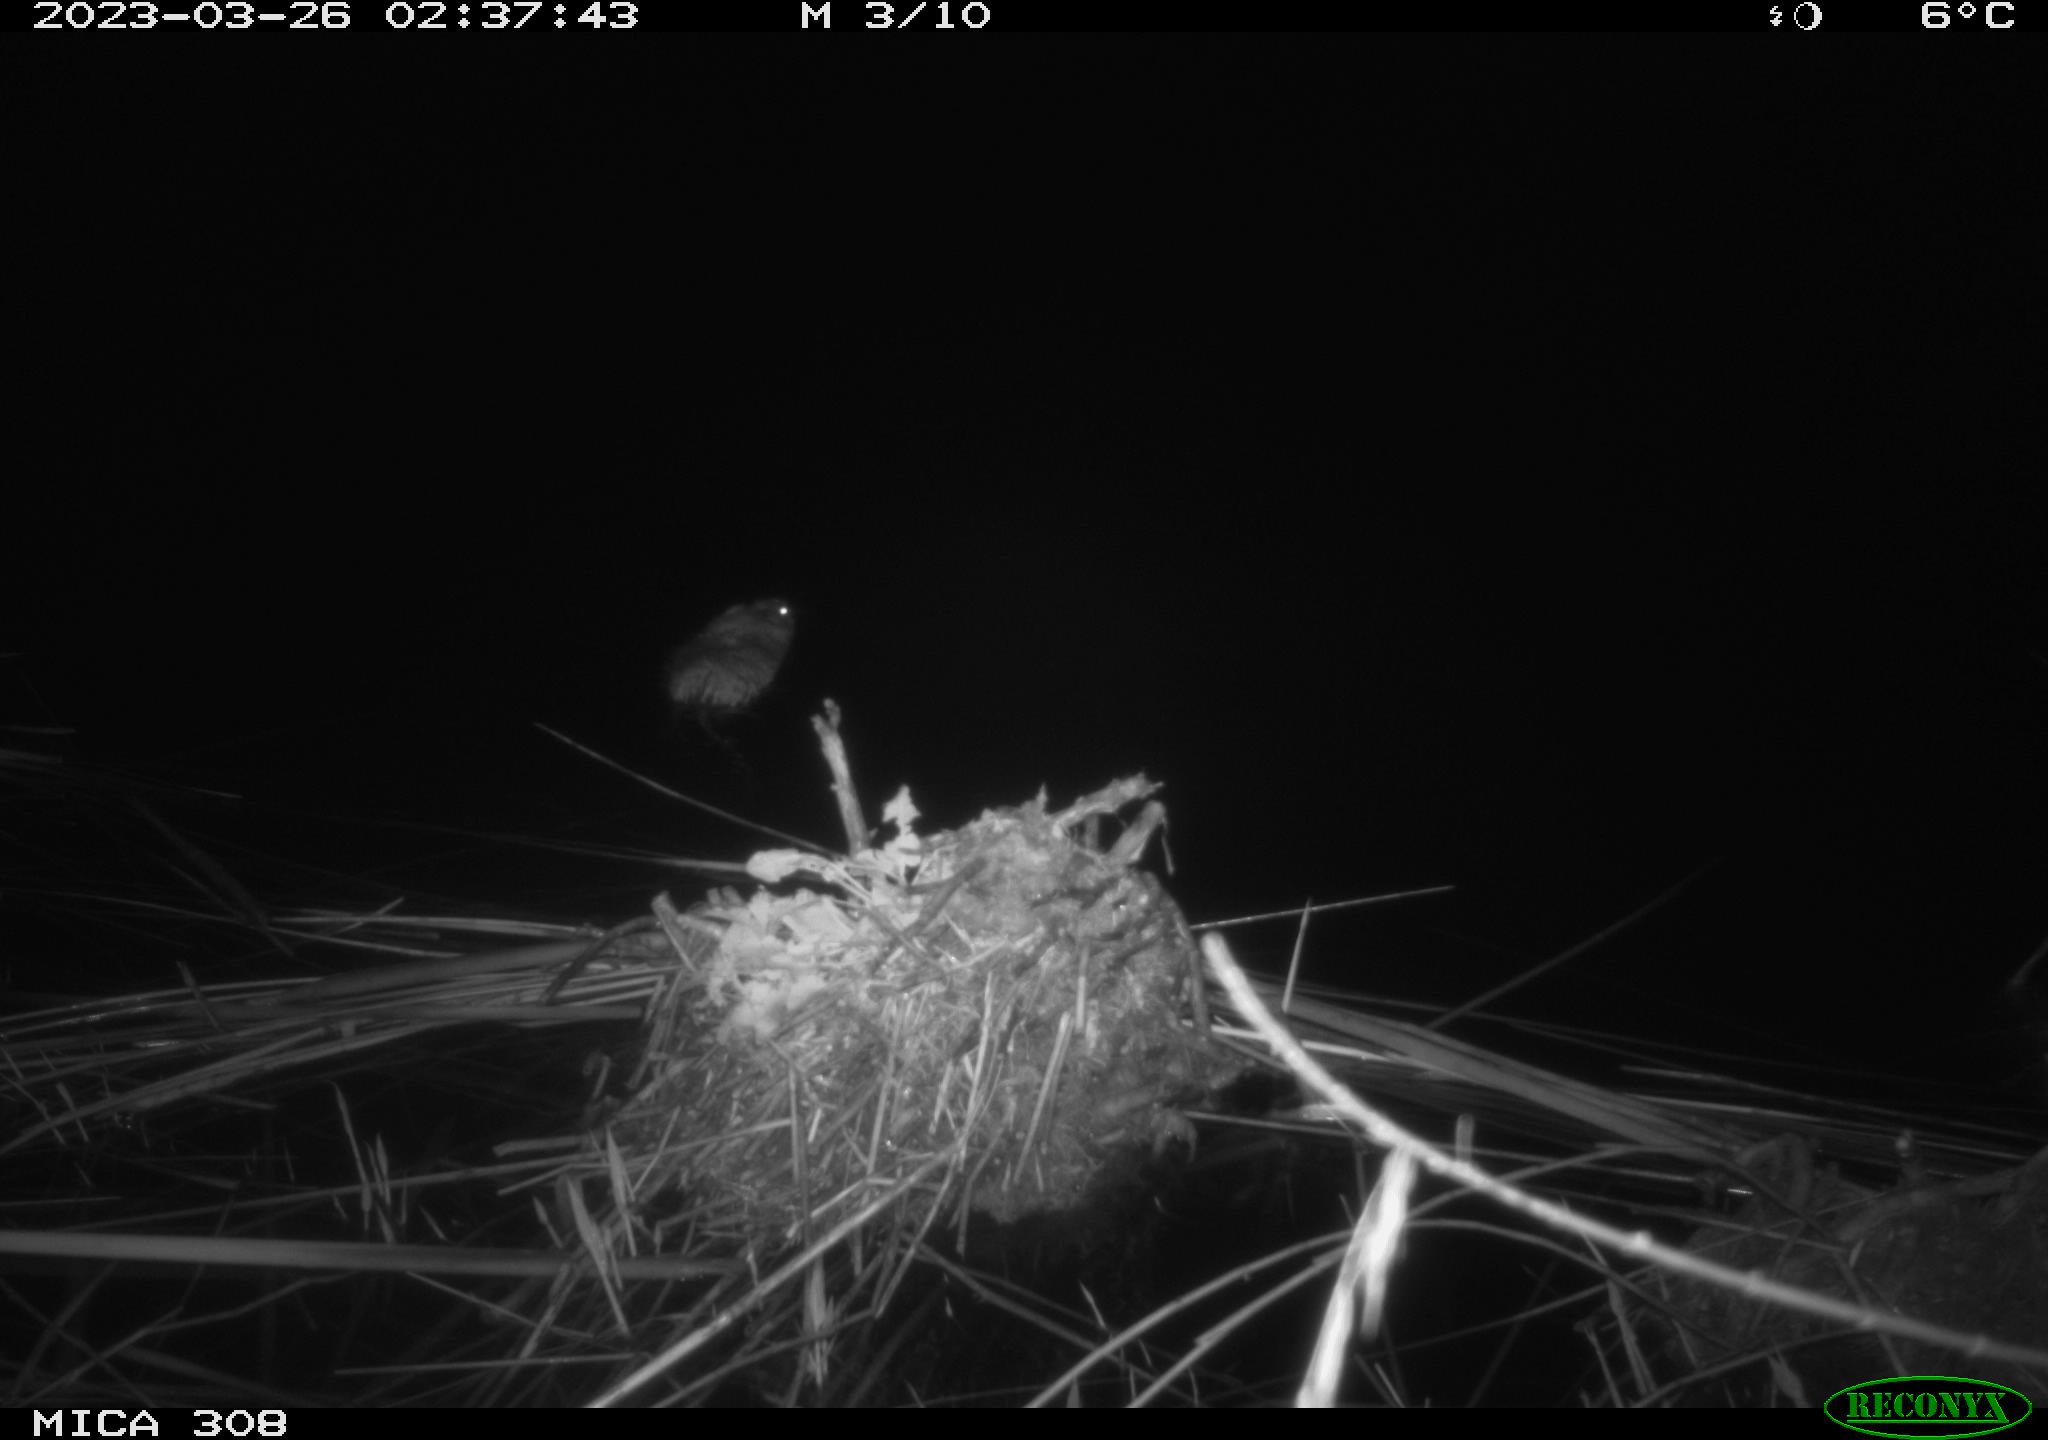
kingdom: Animalia
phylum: Chordata
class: Mammalia
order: Rodentia
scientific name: Rodentia
